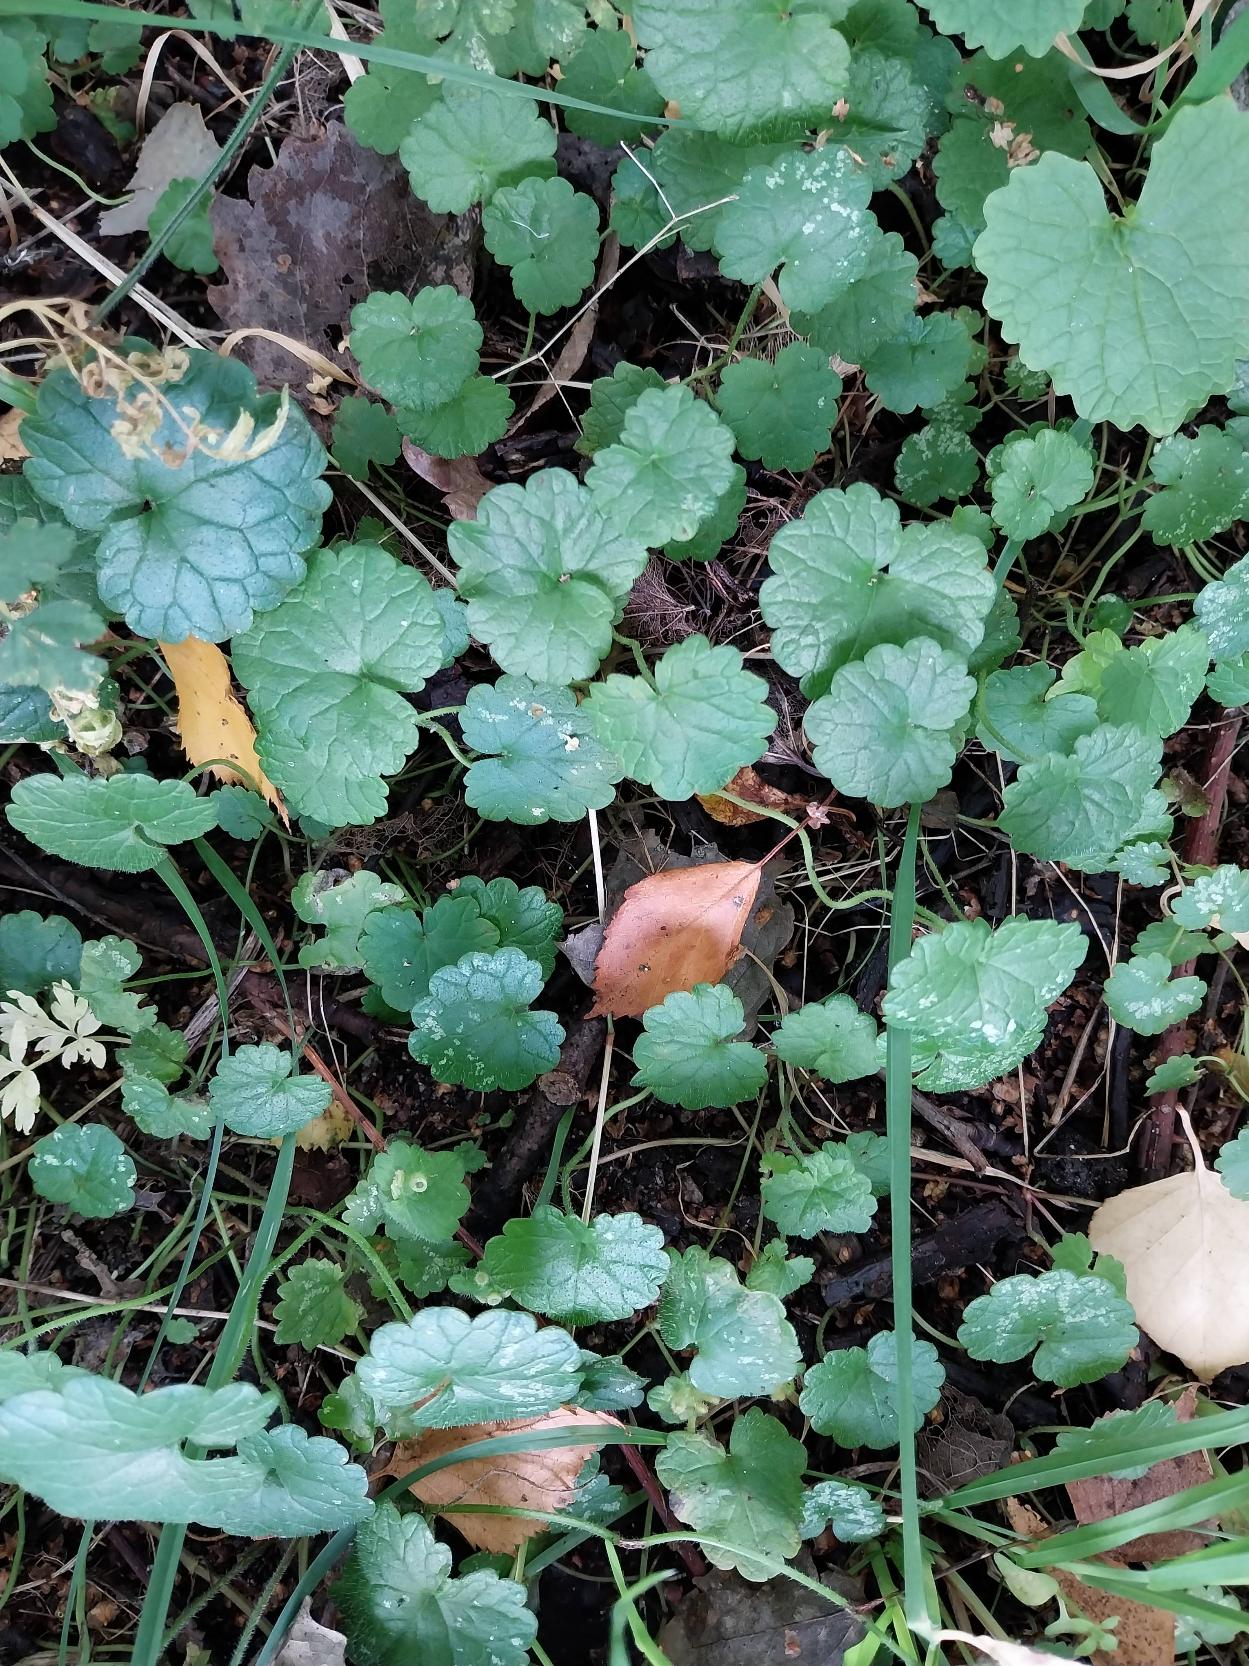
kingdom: Plantae
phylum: Tracheophyta
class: Magnoliopsida
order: Lamiales
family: Lamiaceae
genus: Glechoma
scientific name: Glechoma hederacea
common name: Korsknap
